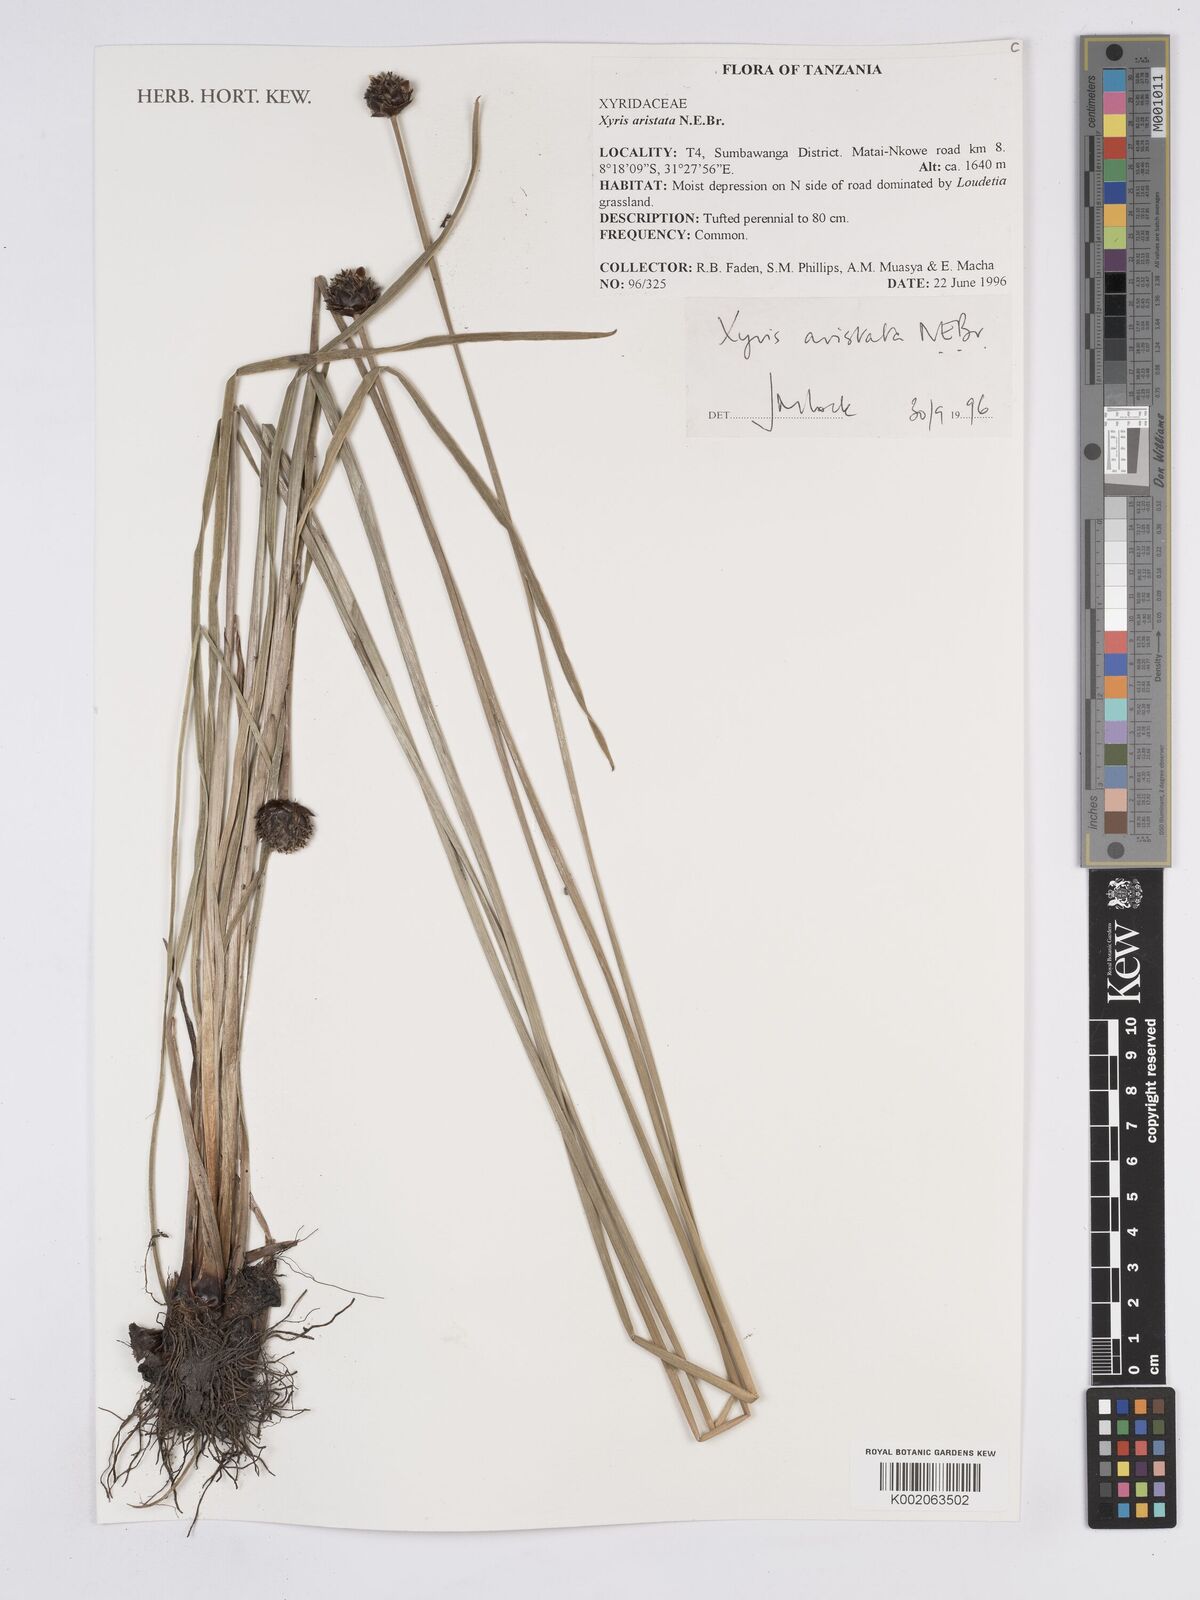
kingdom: Plantae
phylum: Tracheophyta
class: Liliopsida
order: Poales
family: Xyridaceae
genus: Xyris
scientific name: Xyris aristata
